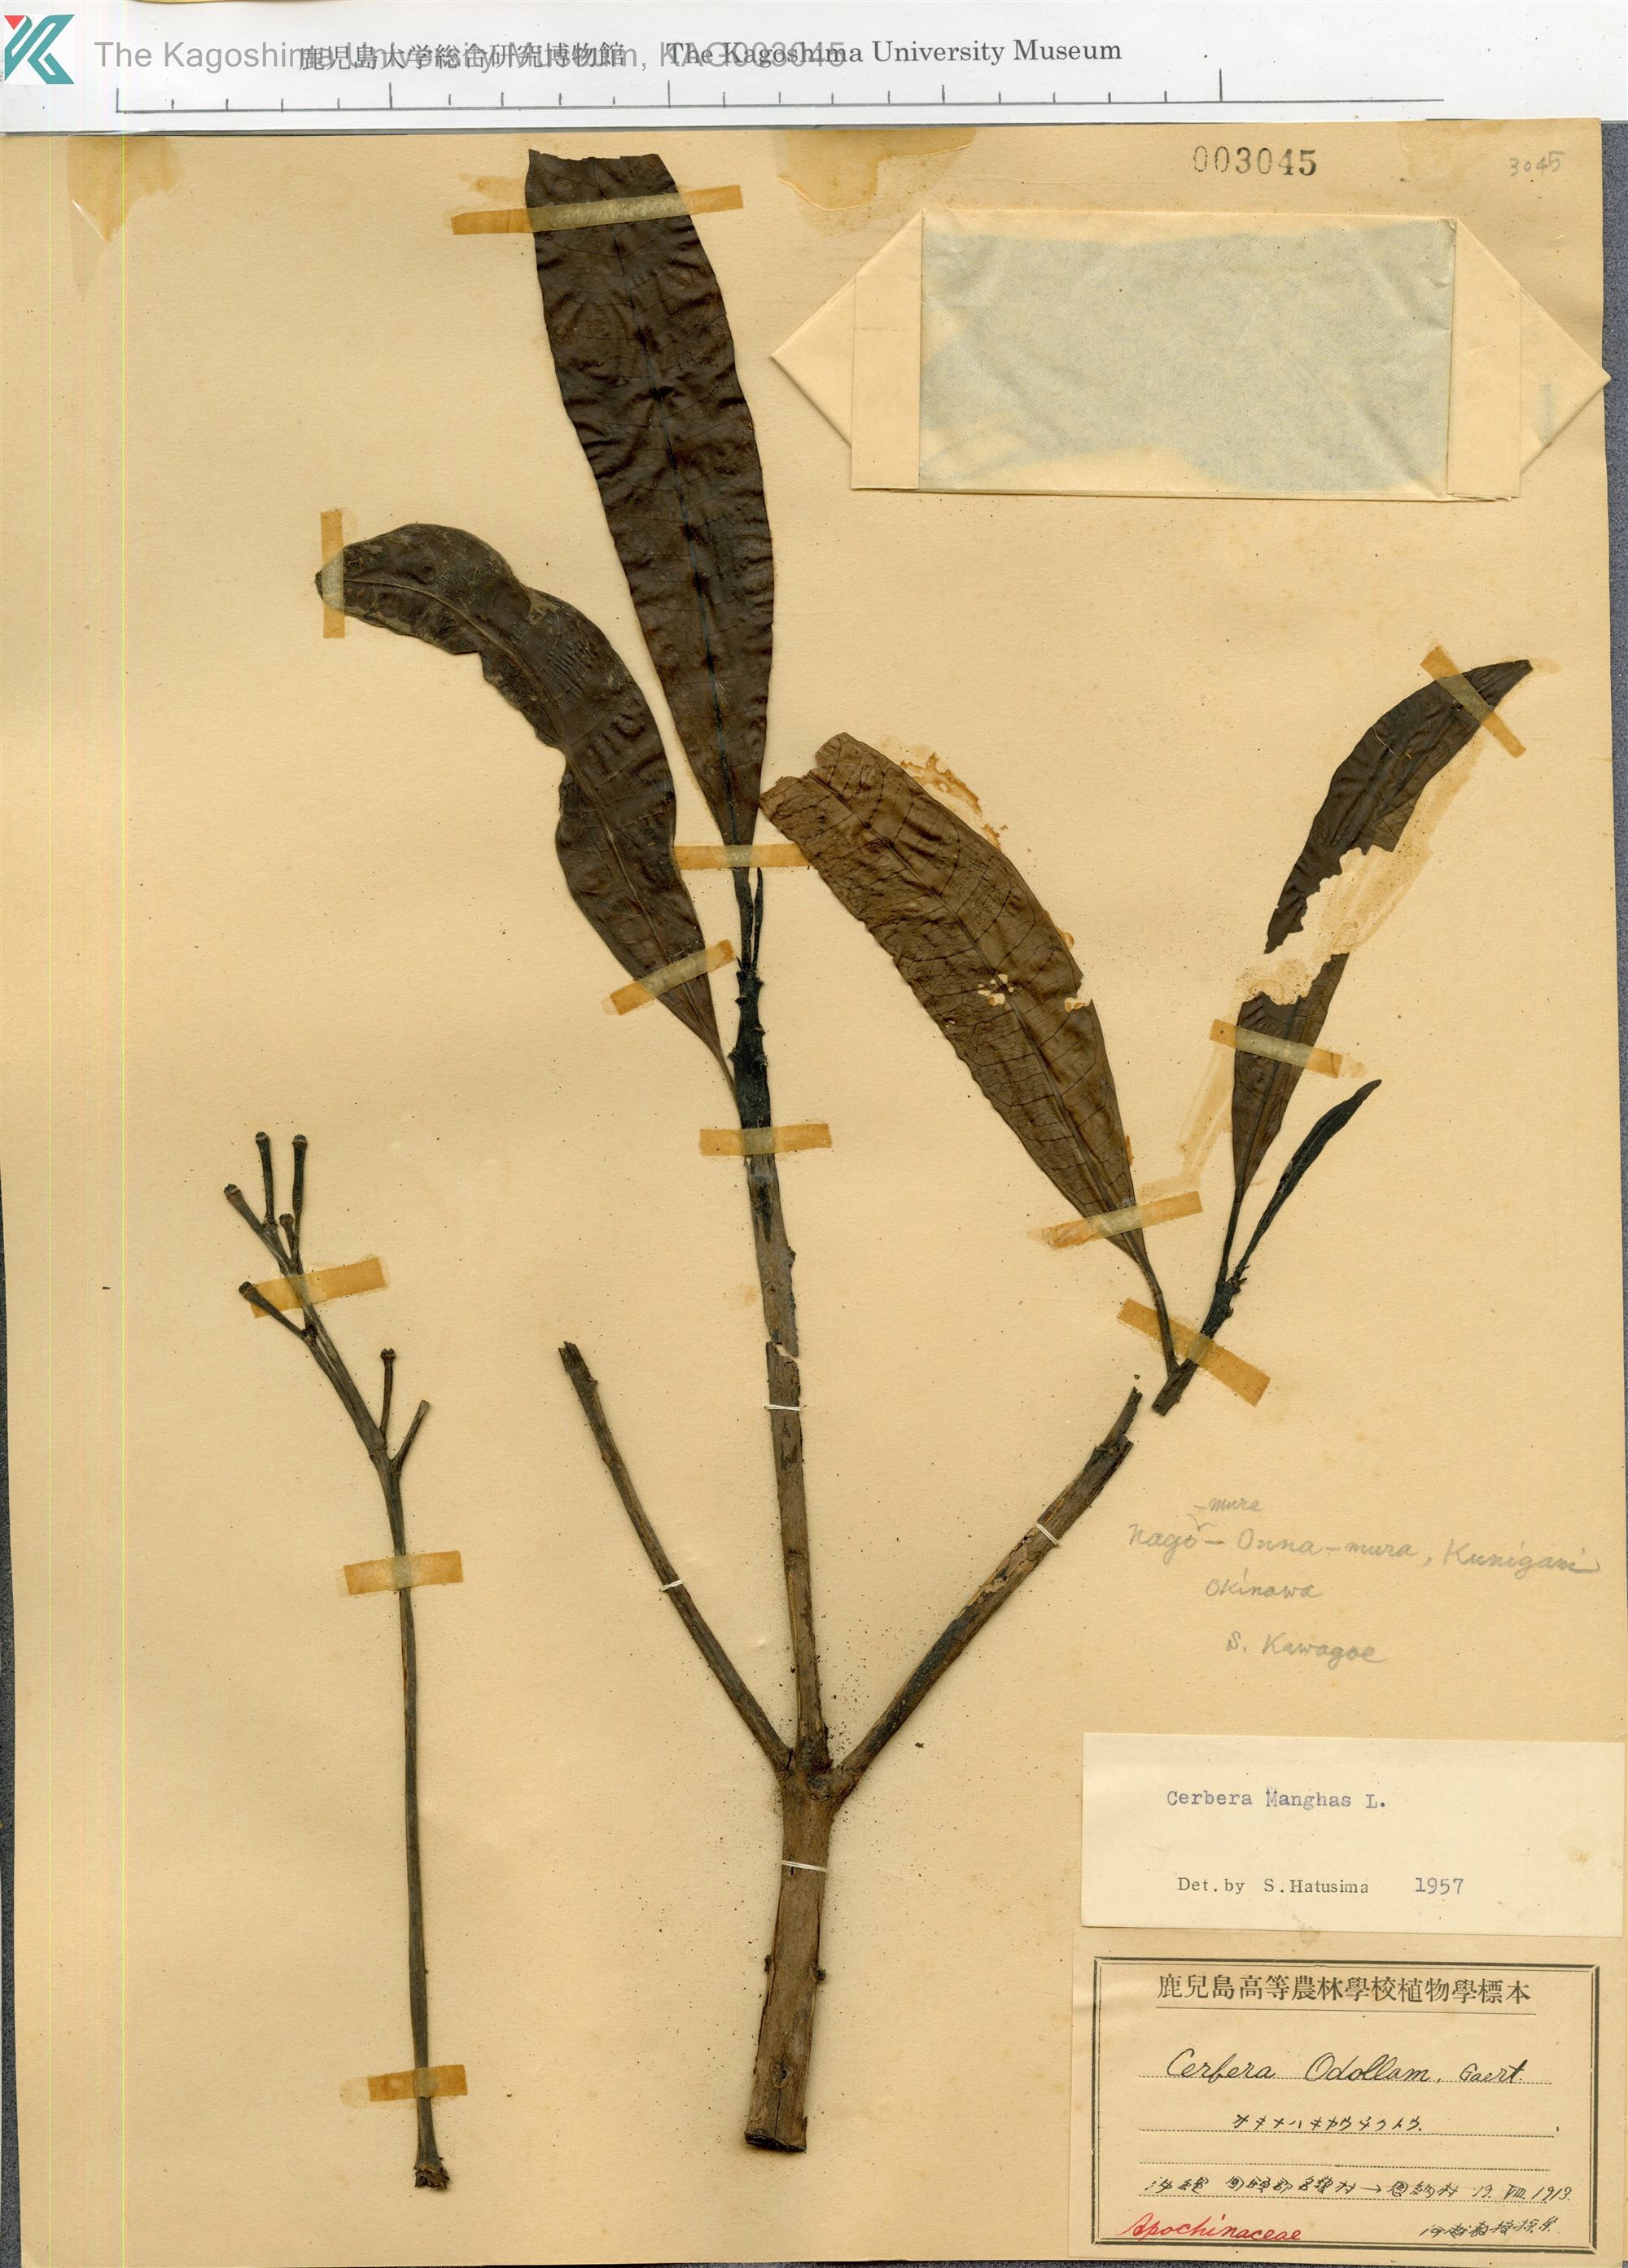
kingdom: Plantae
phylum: Tracheophyta
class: Magnoliopsida
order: Gentianales
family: Apocynaceae
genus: Cerbera
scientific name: Cerbera manghas
